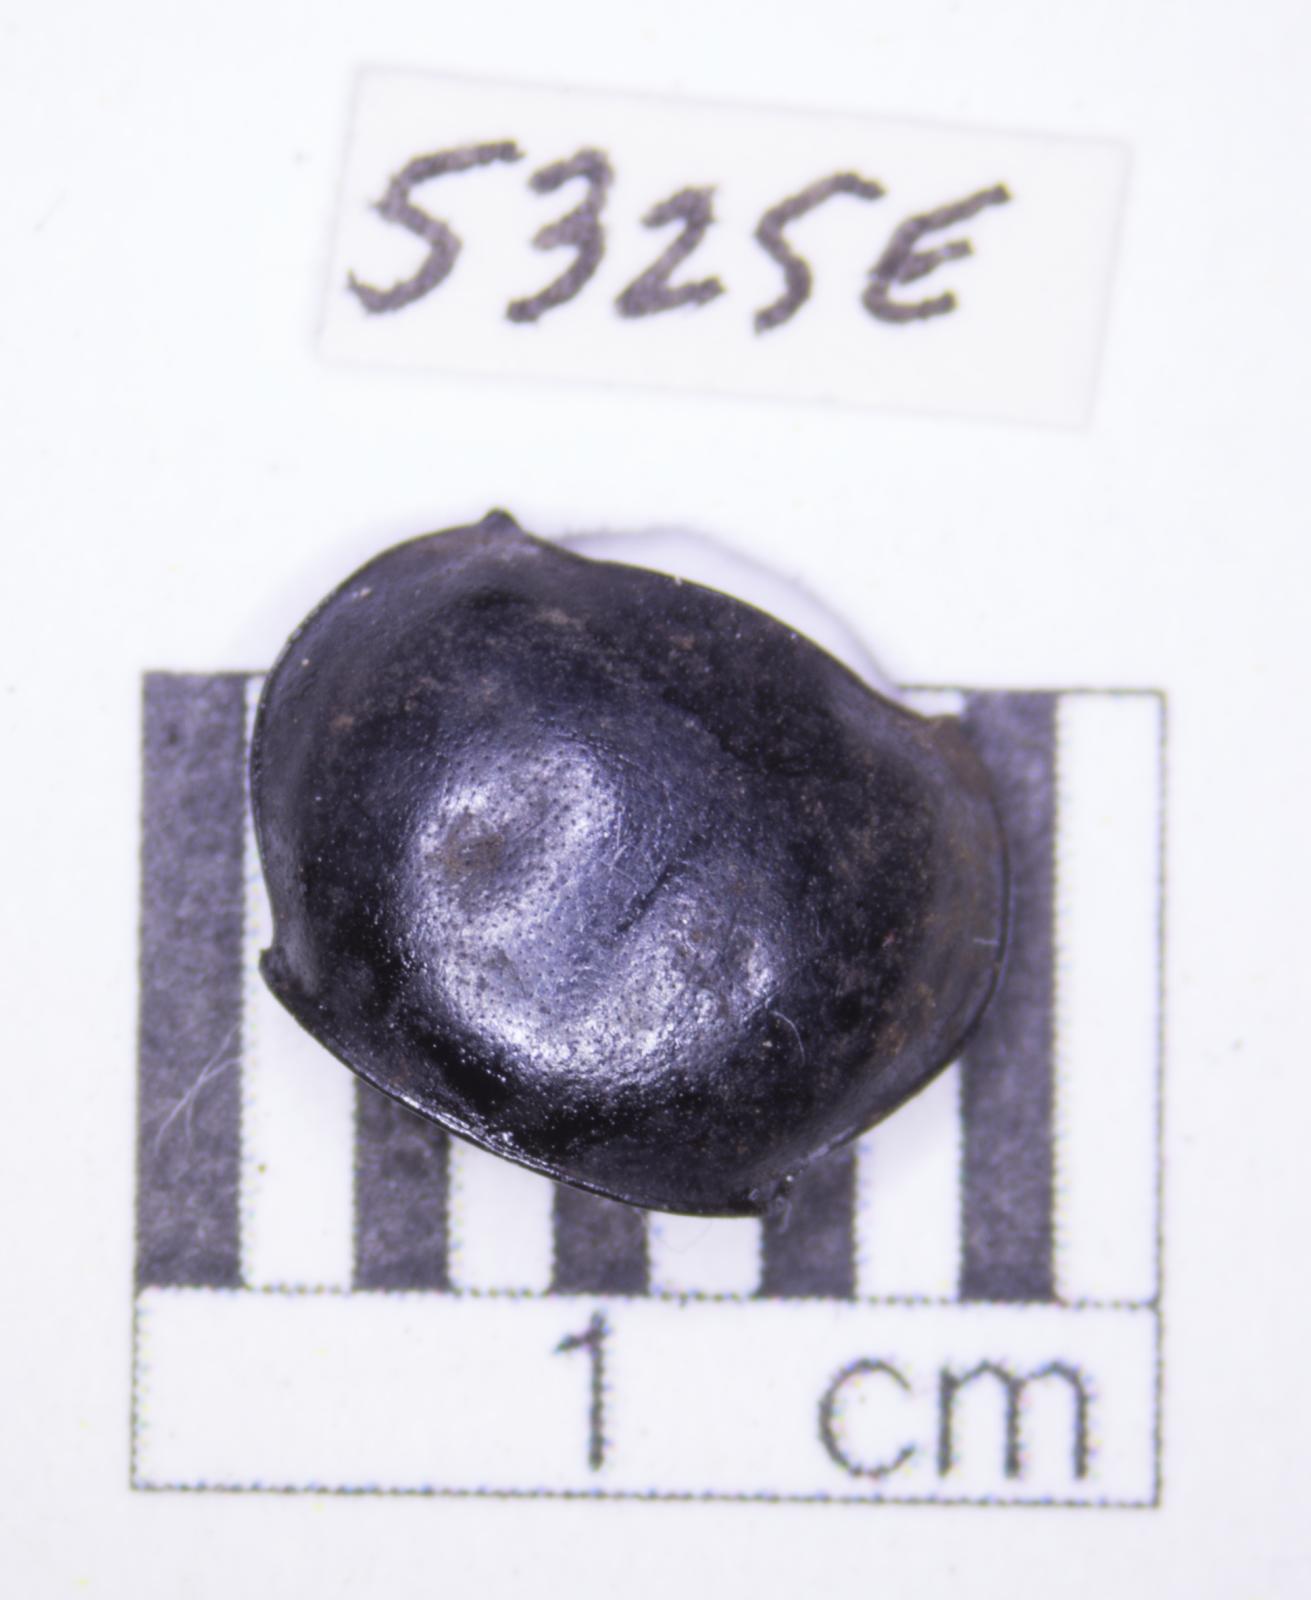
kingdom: Animalia
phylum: Arthropoda
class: Insecta
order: Coleoptera
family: Tenebrionidae
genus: Eleodes
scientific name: Eleodes acuticauda
